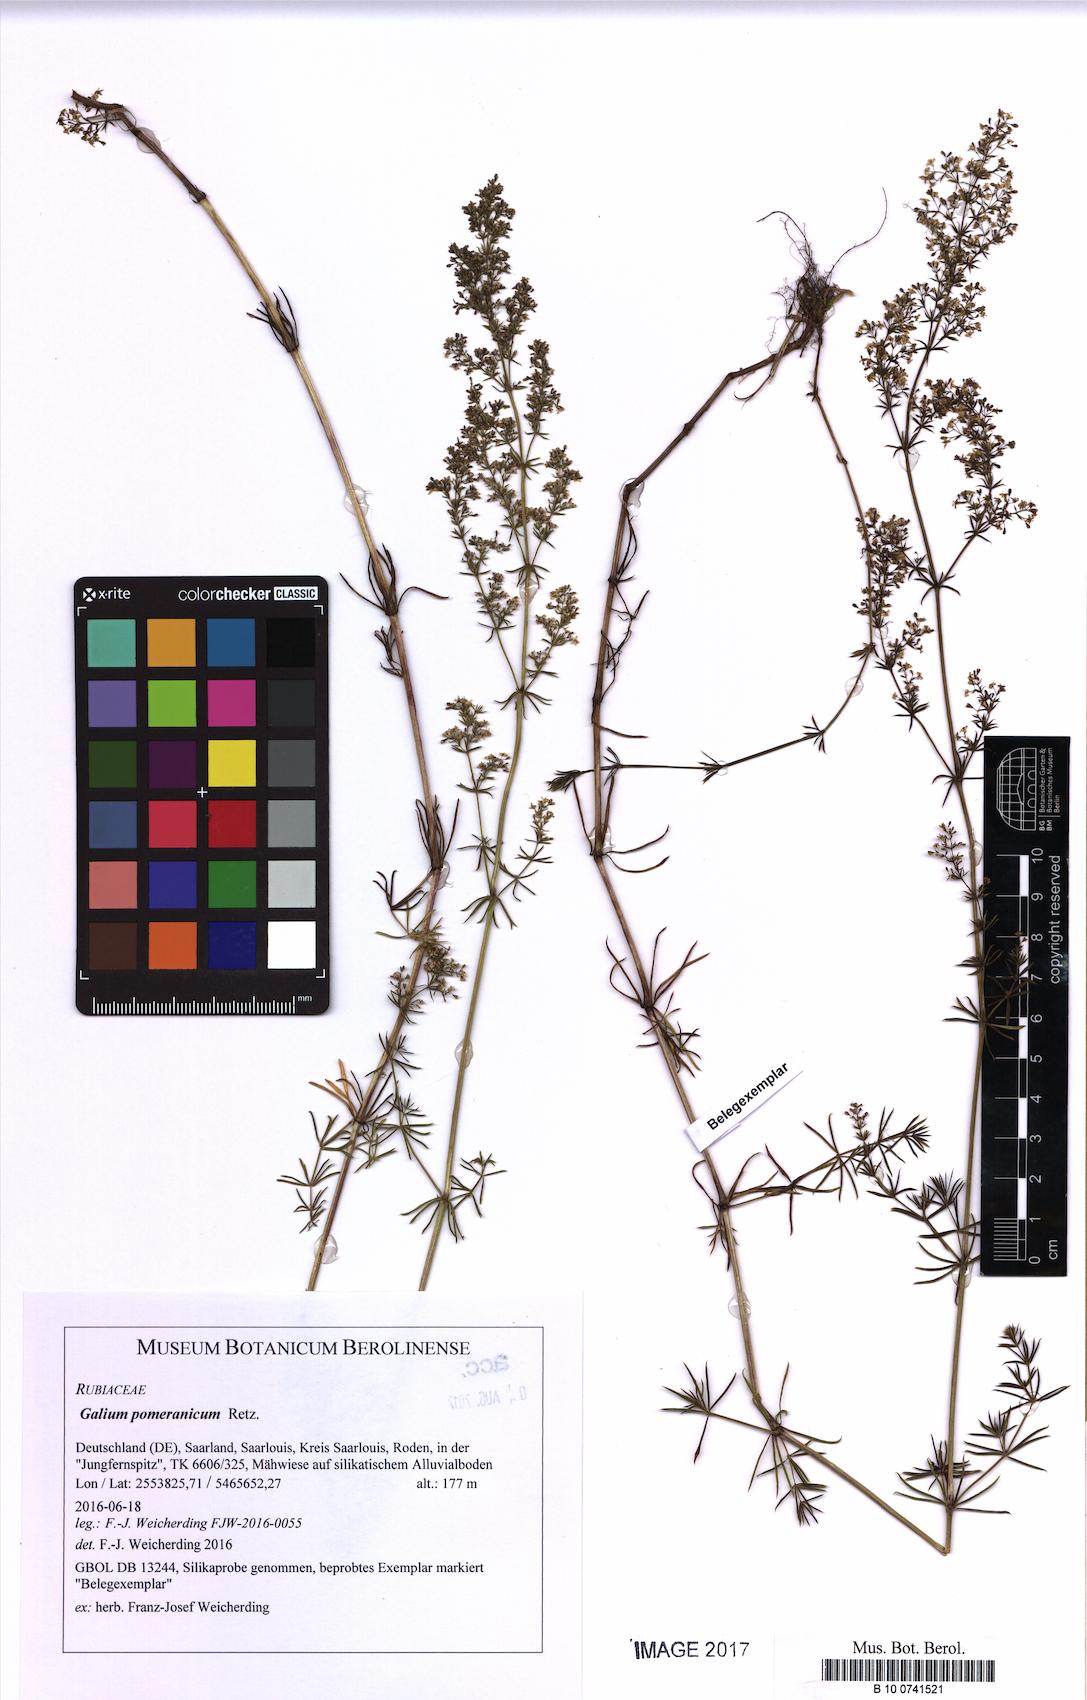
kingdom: Plantae
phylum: Tracheophyta
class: Magnoliopsida
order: Gentianales
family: Rubiaceae
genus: Galium
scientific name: Galium pomeranicum
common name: Bedstraw
